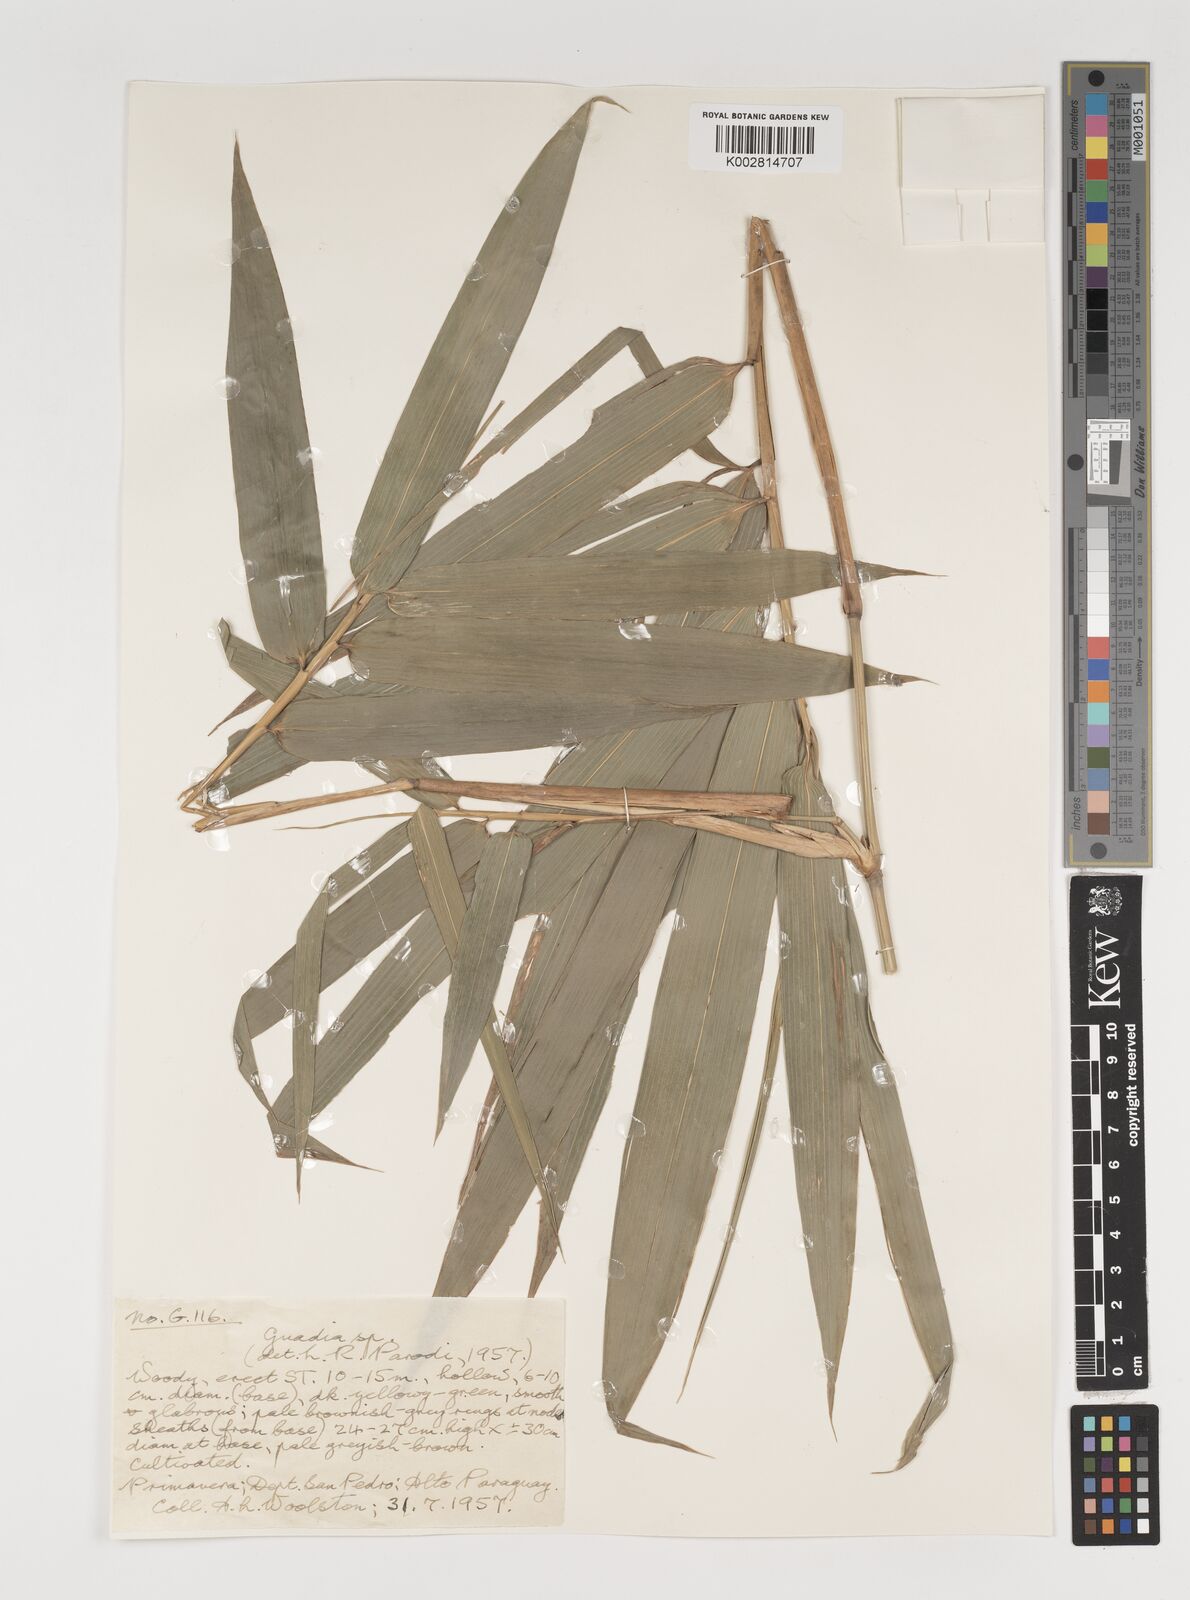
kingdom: Plantae
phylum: Tracheophyta
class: Liliopsida
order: Poales
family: Poaceae
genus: Guadua
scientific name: Guadua
